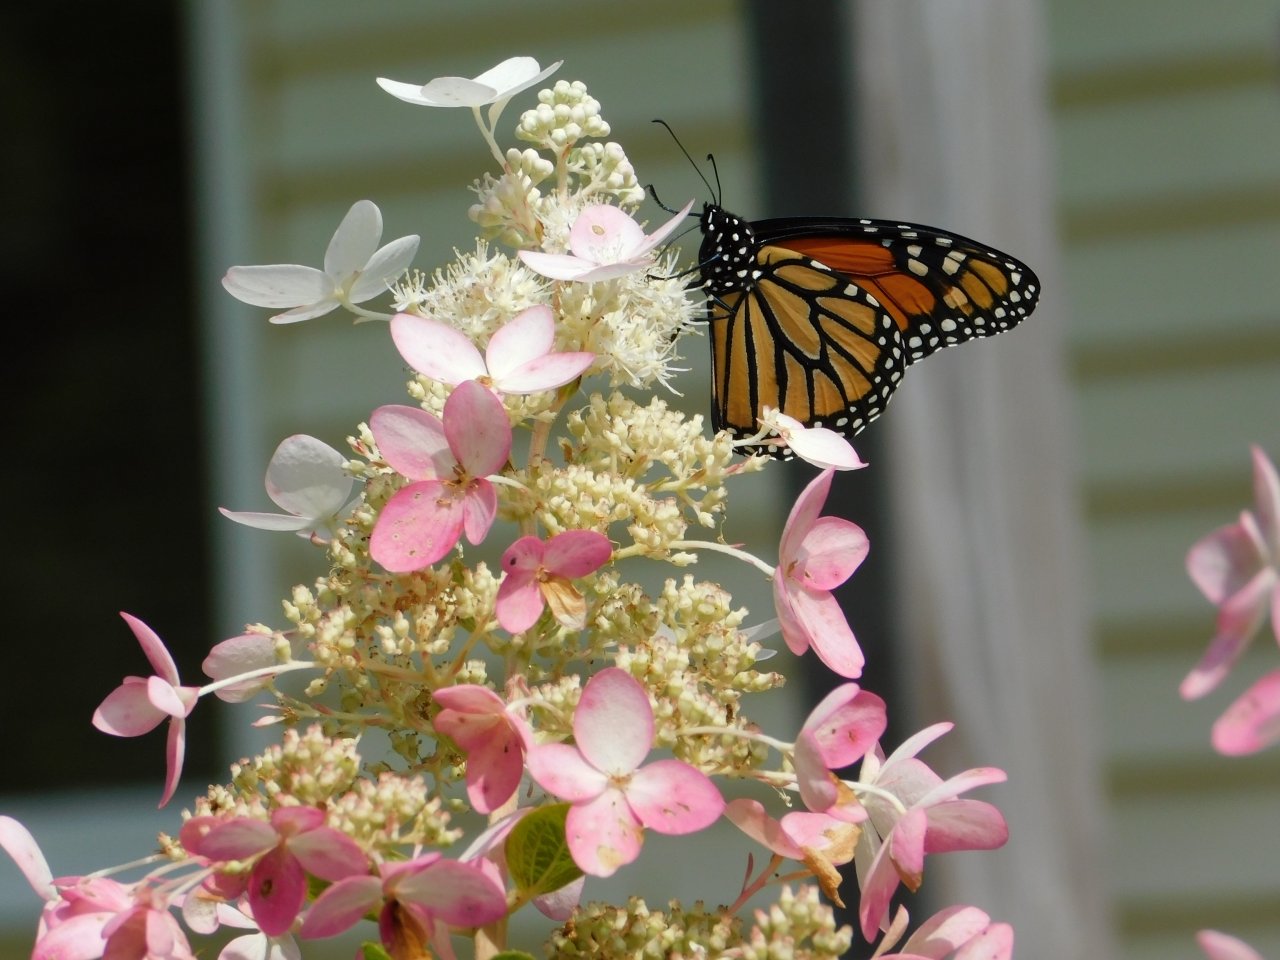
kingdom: Animalia
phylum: Arthropoda
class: Insecta
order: Lepidoptera
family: Nymphalidae
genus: Danaus
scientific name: Danaus plexippus
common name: Monarch
